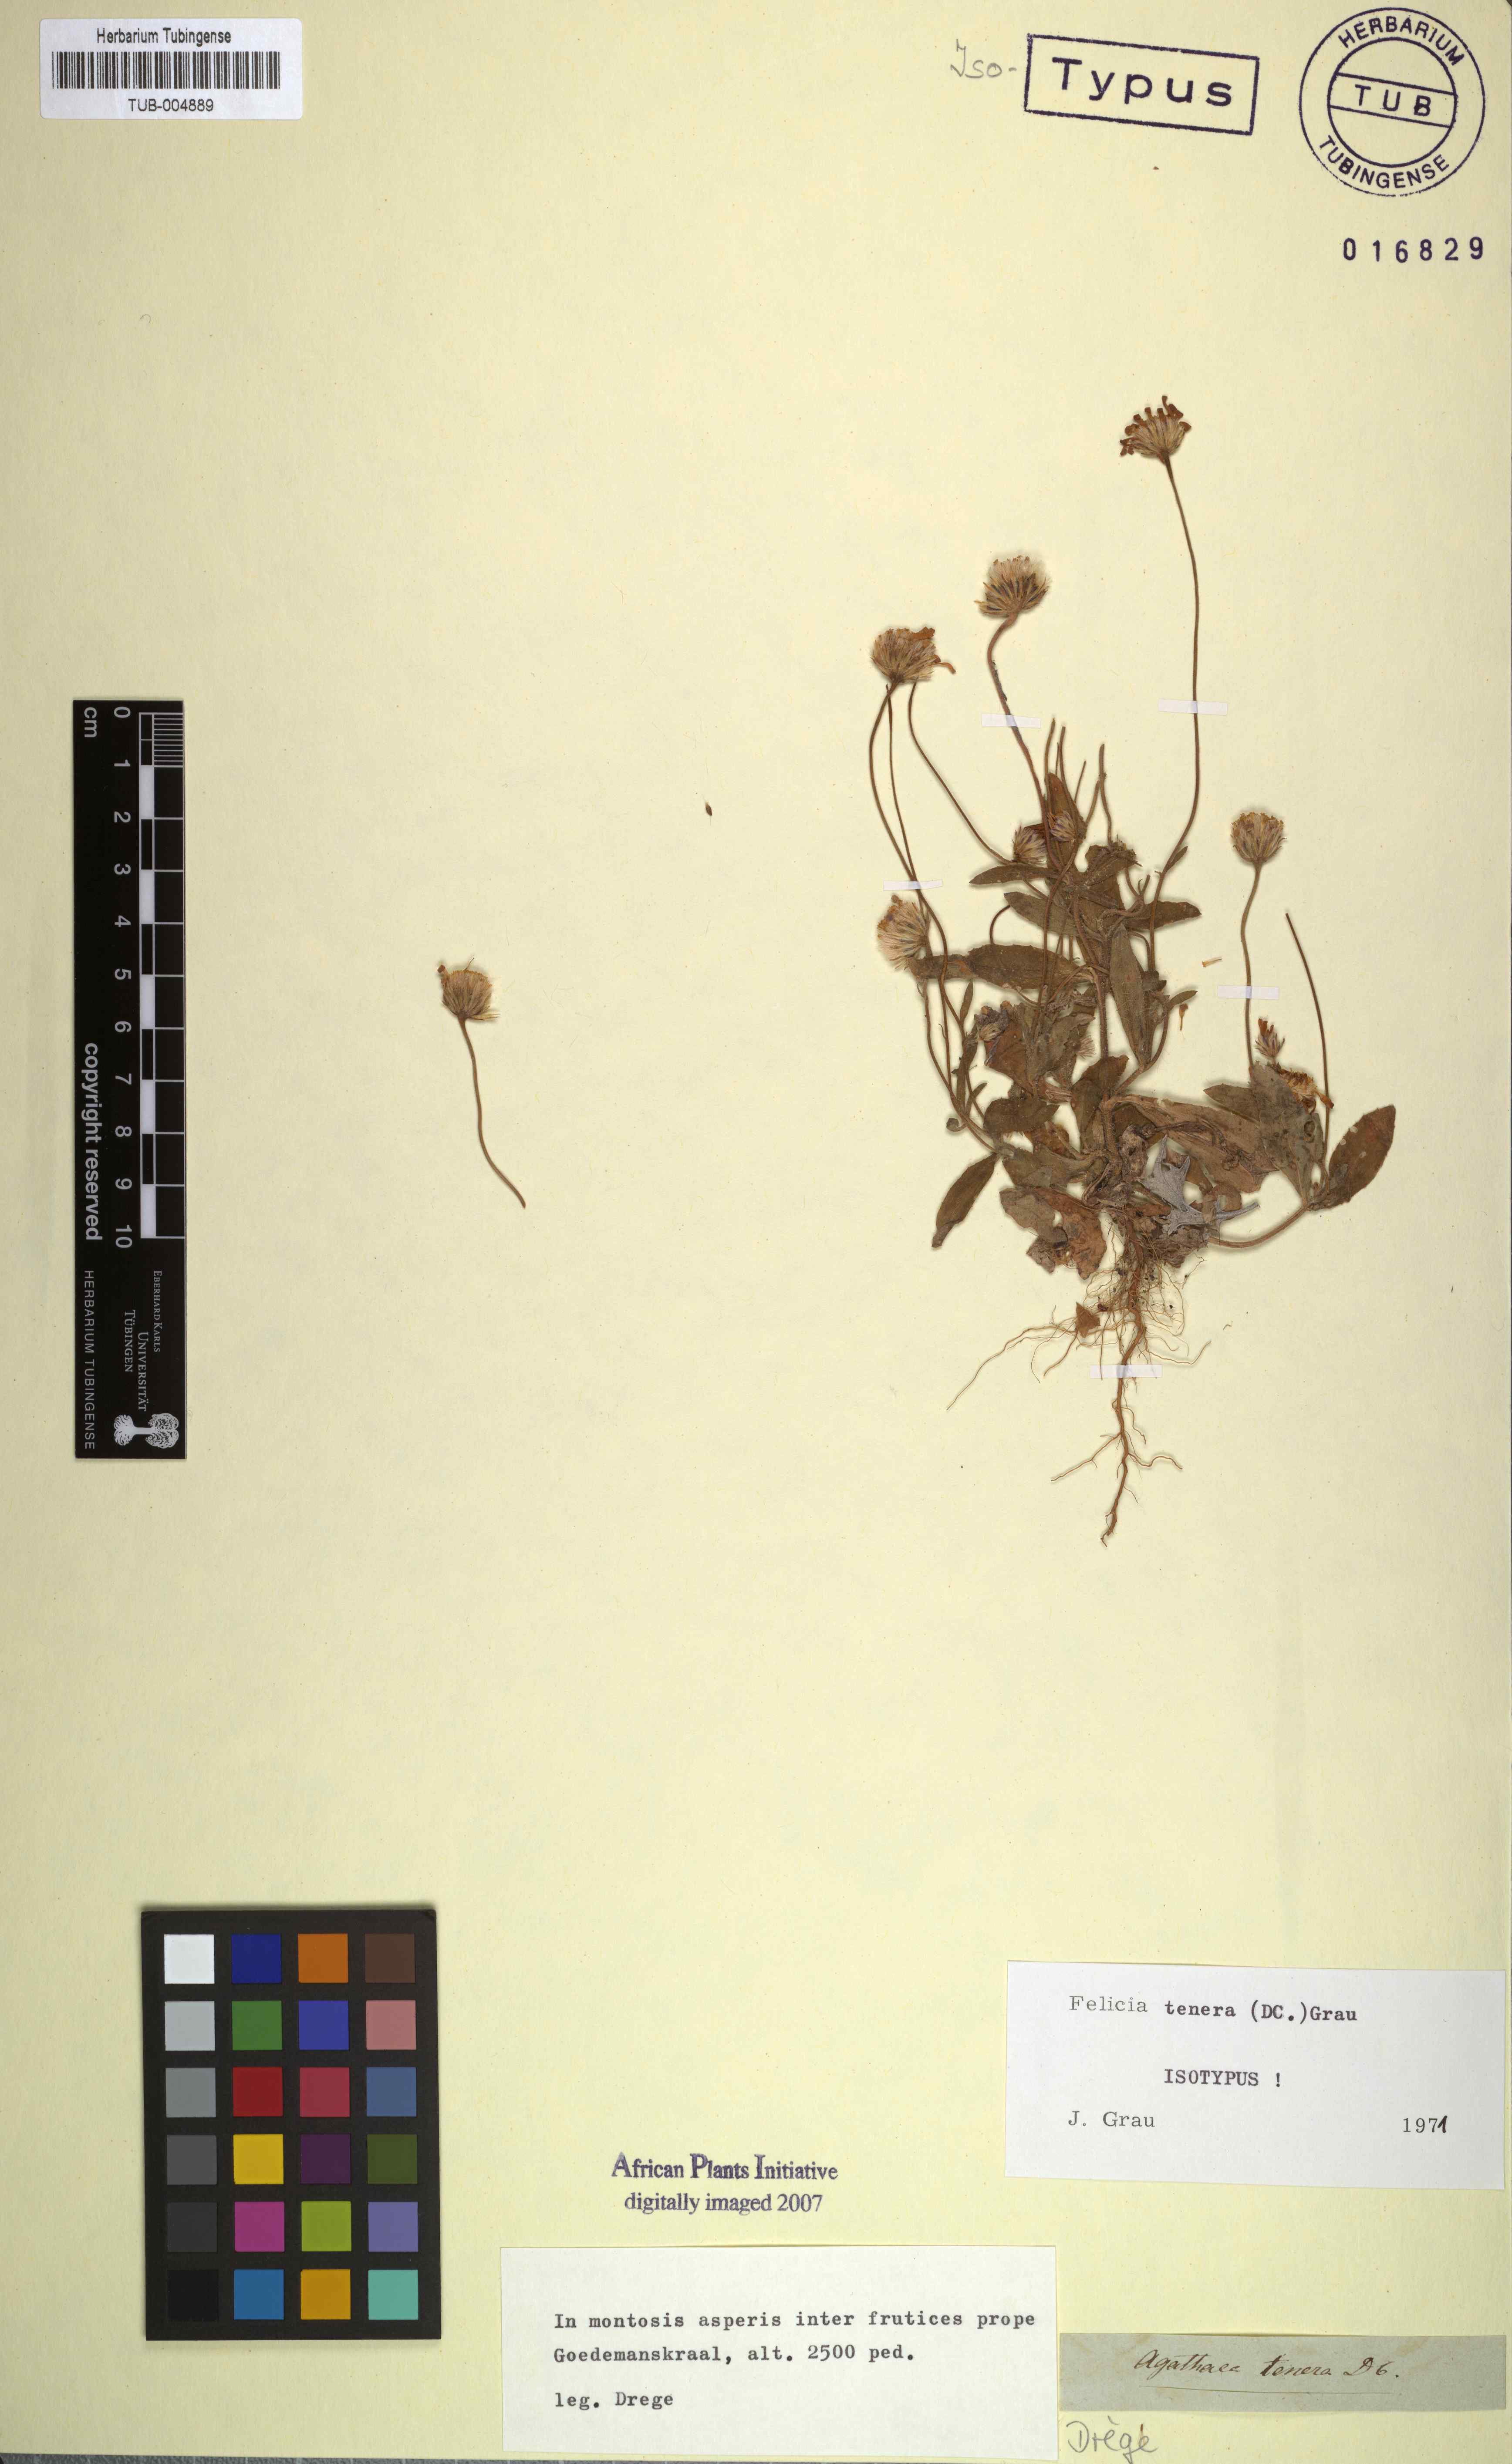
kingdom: Plantae
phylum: Tracheophyta
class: Magnoliopsida
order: Asterales
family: Asteraceae
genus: Felicia
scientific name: Felicia tenera
